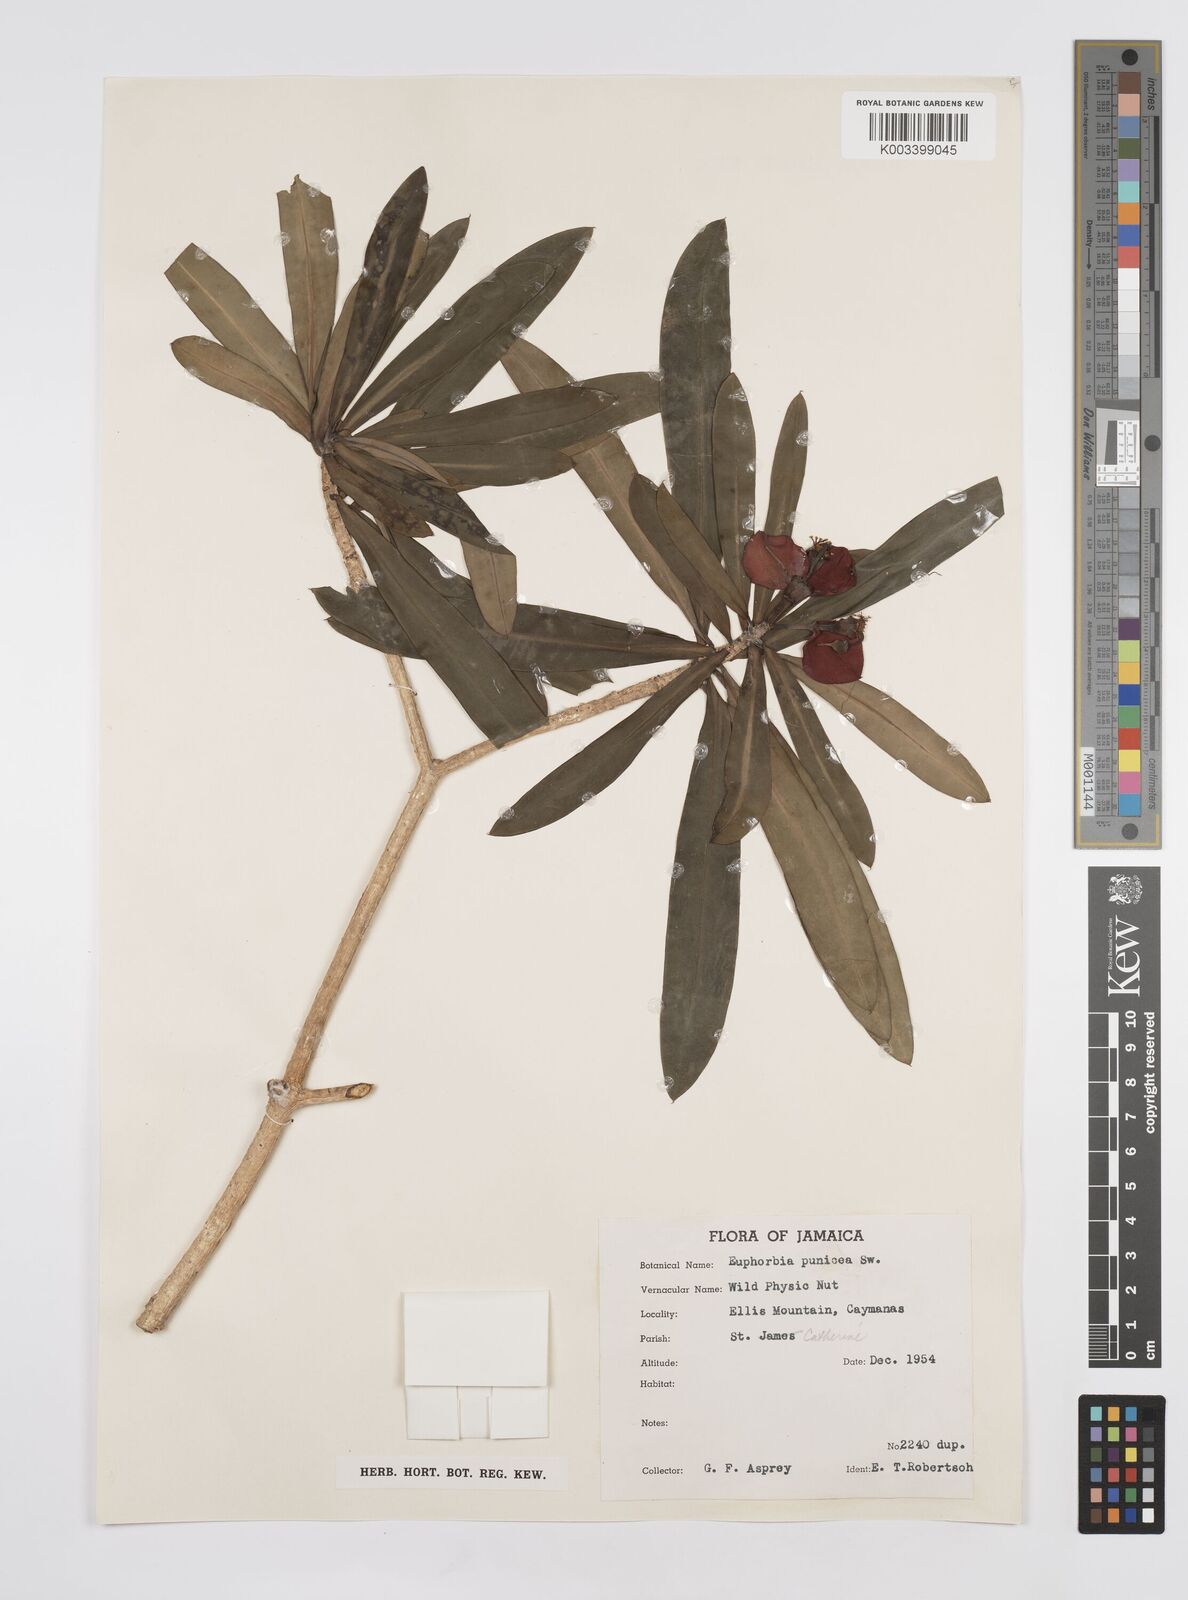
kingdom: Plantae
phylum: Tracheophyta
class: Magnoliopsida
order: Malpighiales
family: Euphorbiaceae
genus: Euphorbia
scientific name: Euphorbia punicea
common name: Vegetable-leather
